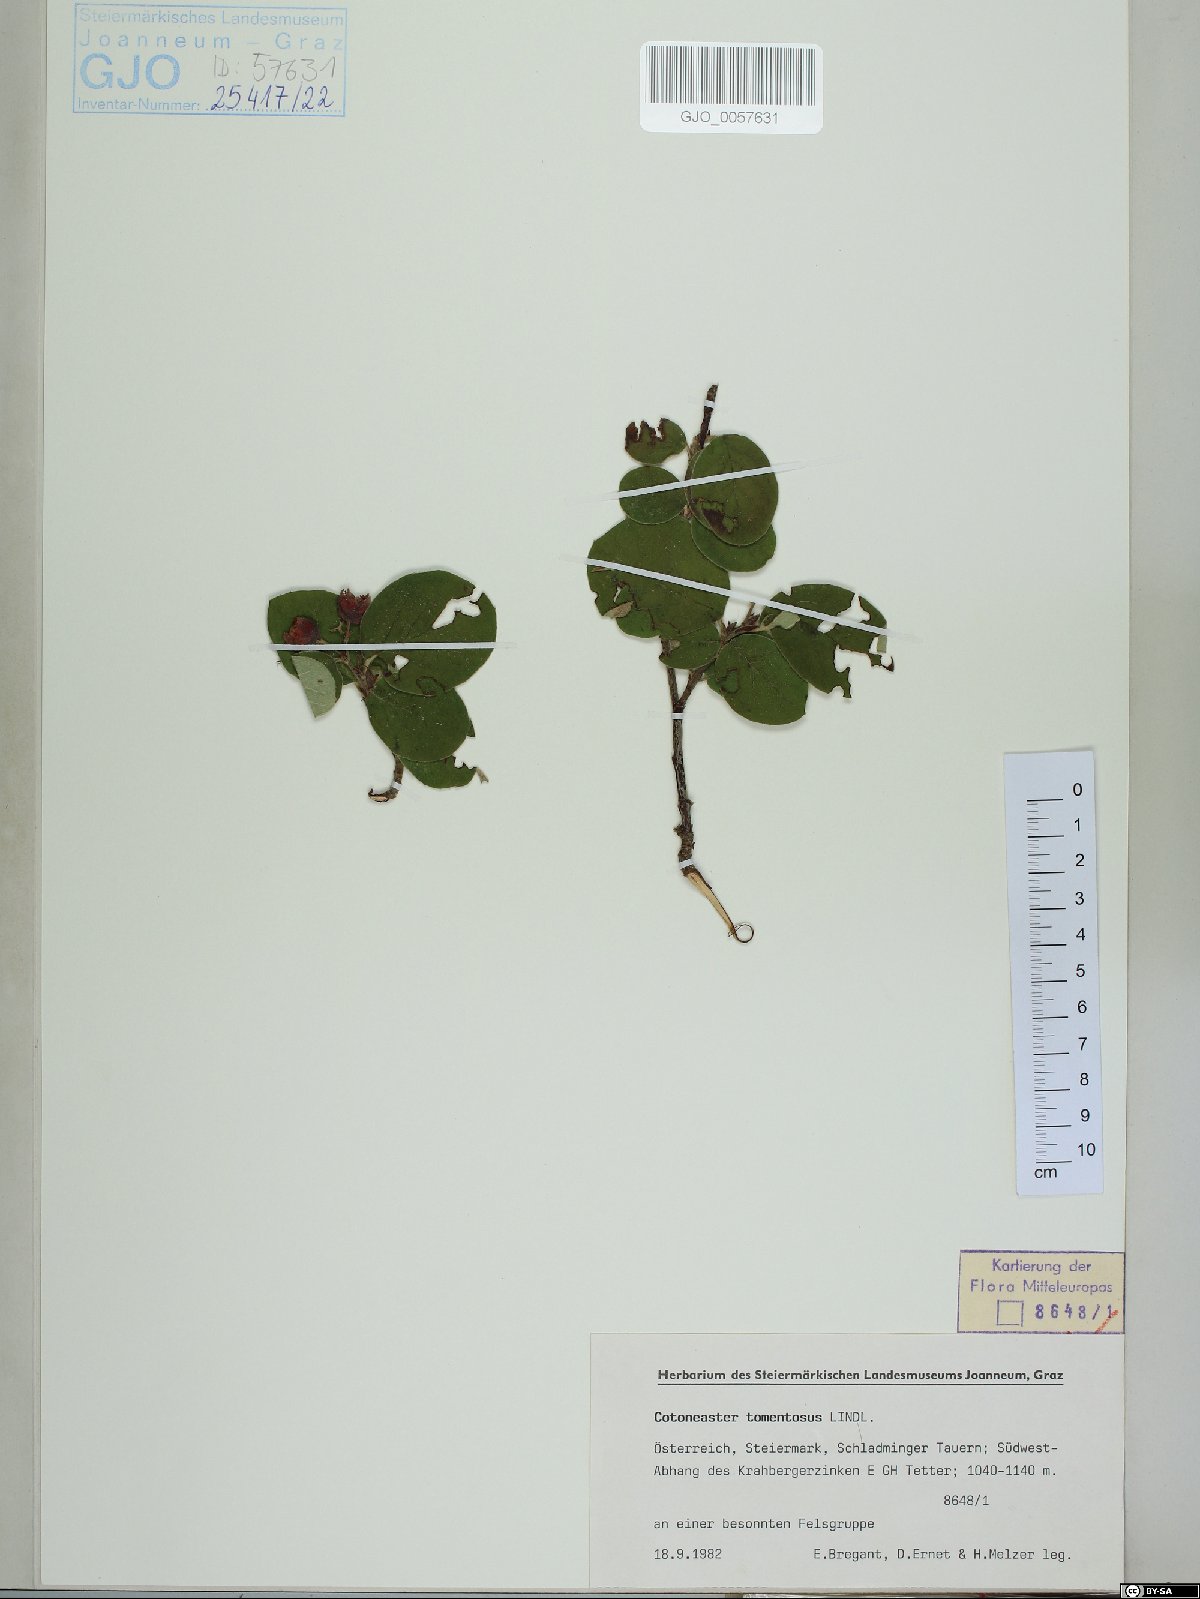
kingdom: Plantae
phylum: Tracheophyta
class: Magnoliopsida
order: Rosales
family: Rosaceae
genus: Cotoneaster
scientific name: Cotoneaster tomentosus
